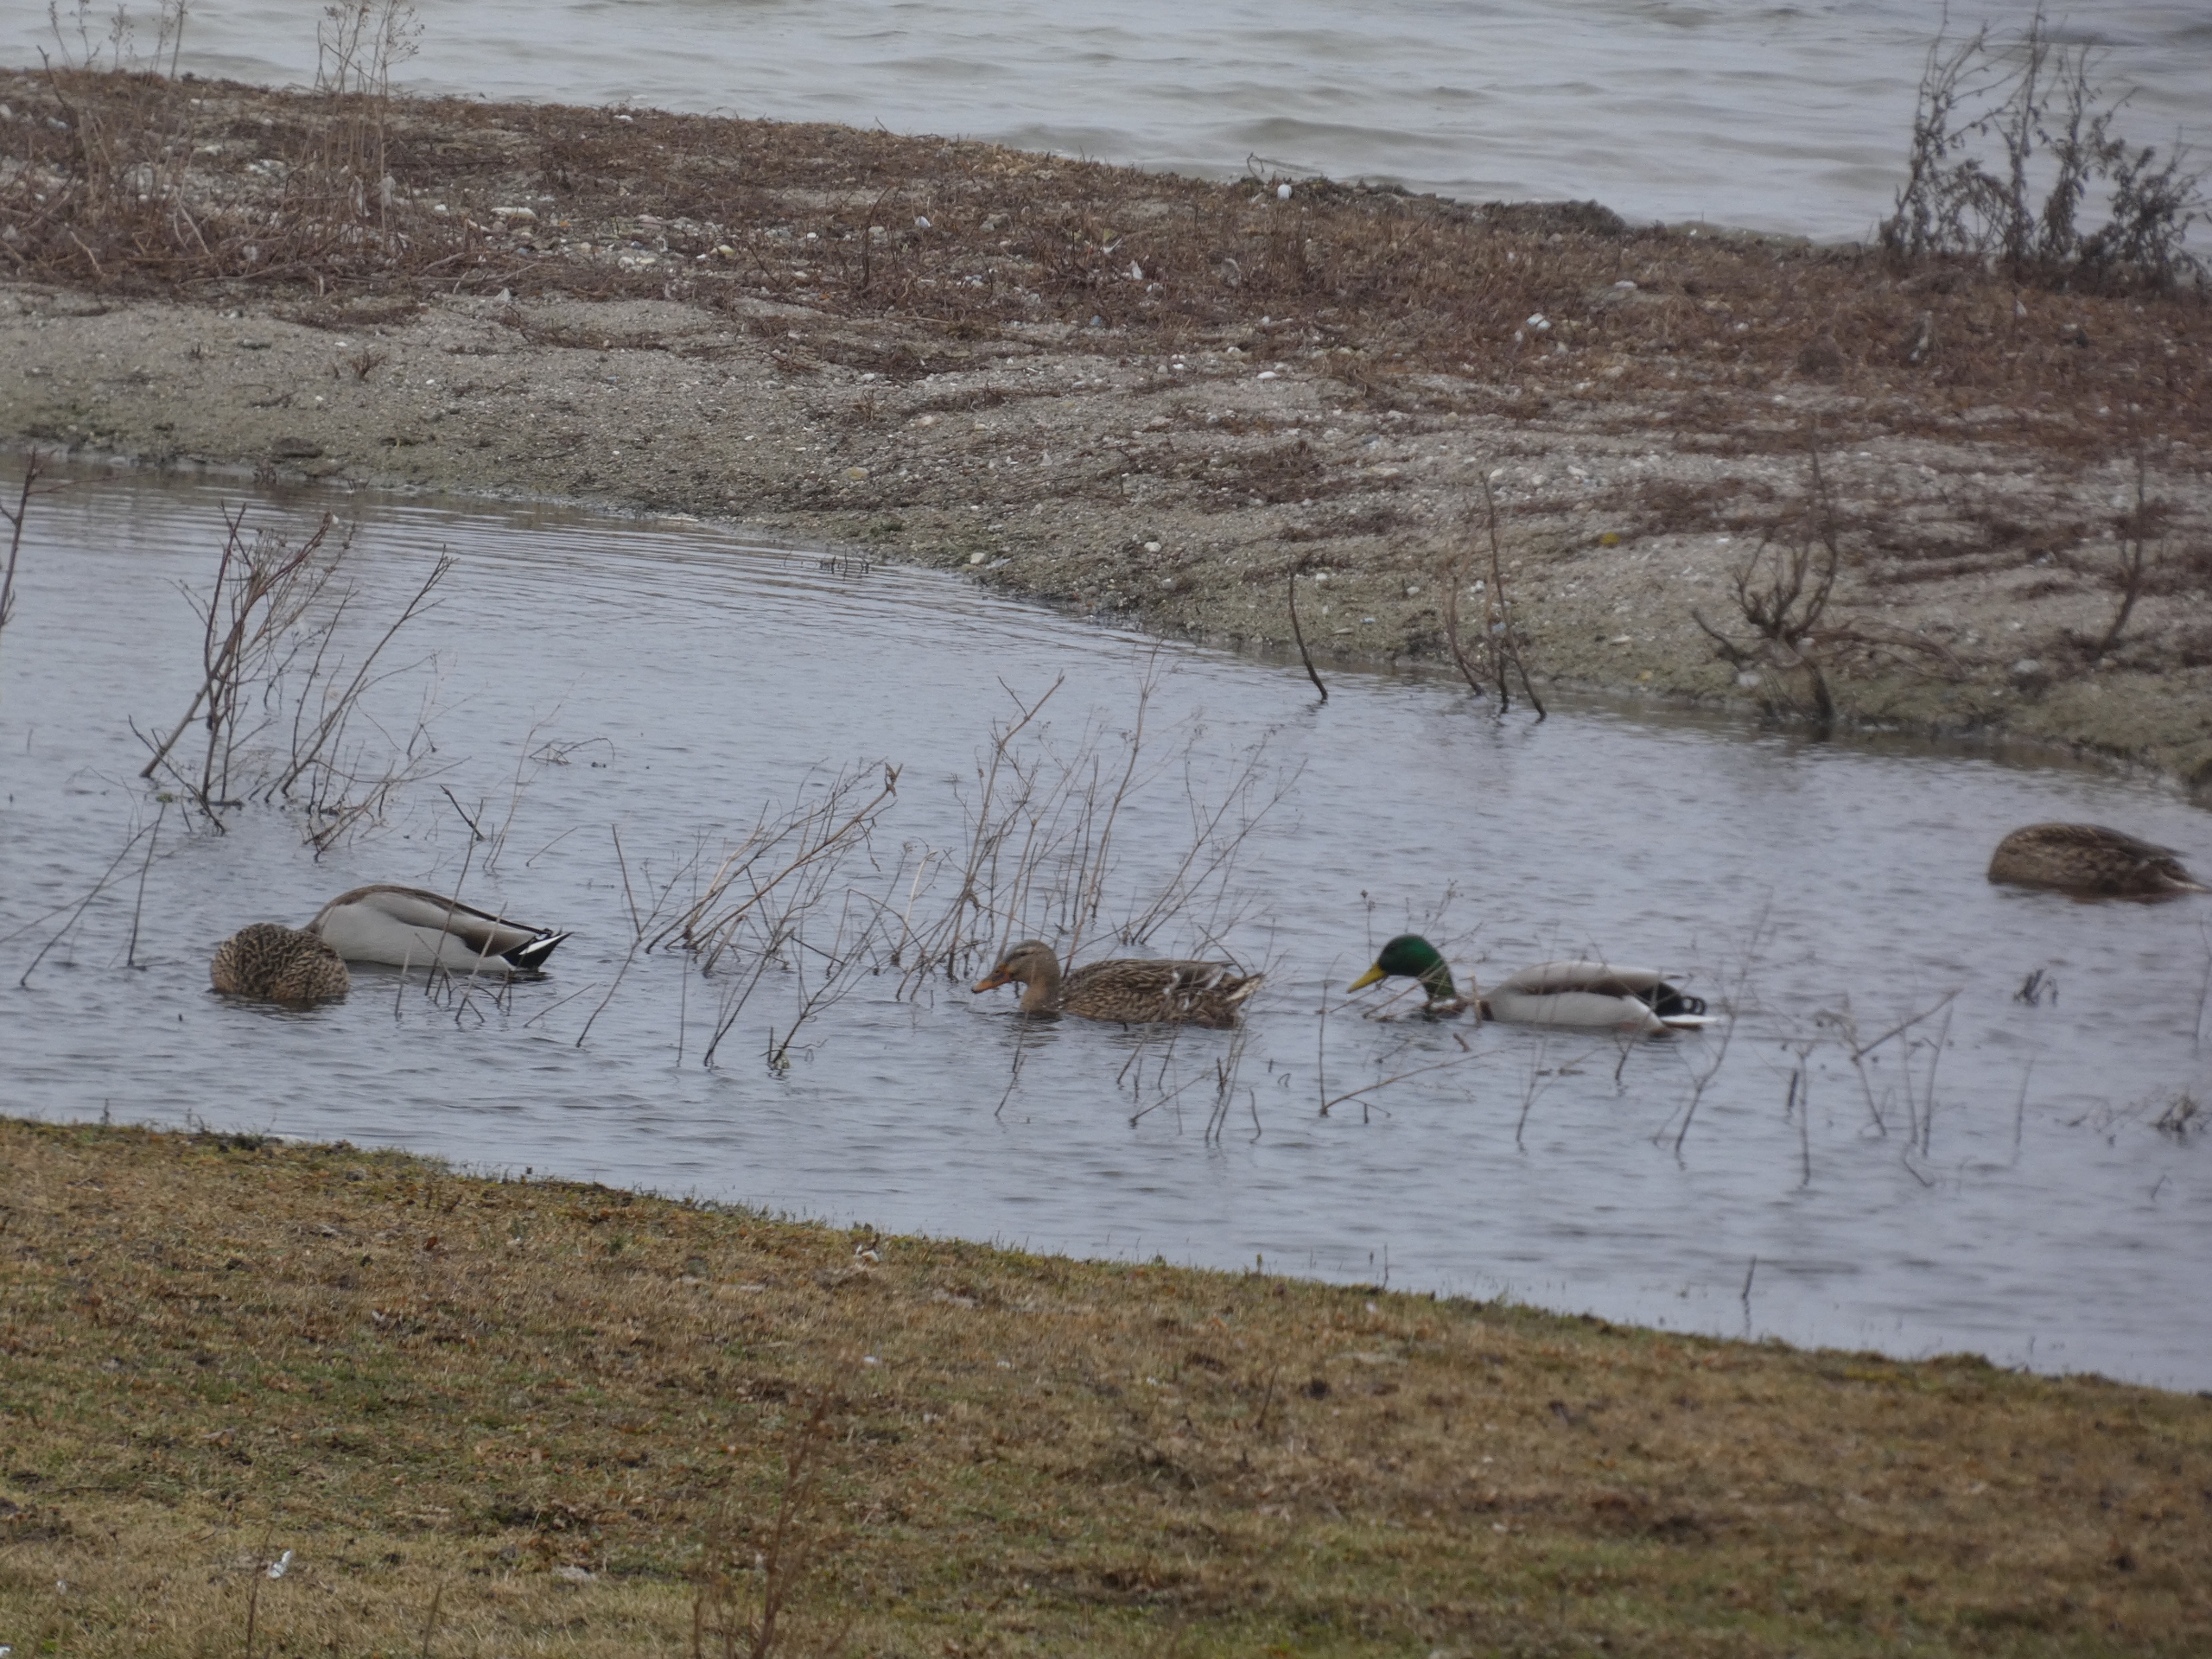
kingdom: Animalia
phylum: Chordata
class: Aves
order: Anseriformes
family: Anatidae
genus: Anas
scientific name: Anas platyrhynchos
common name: Gråand
